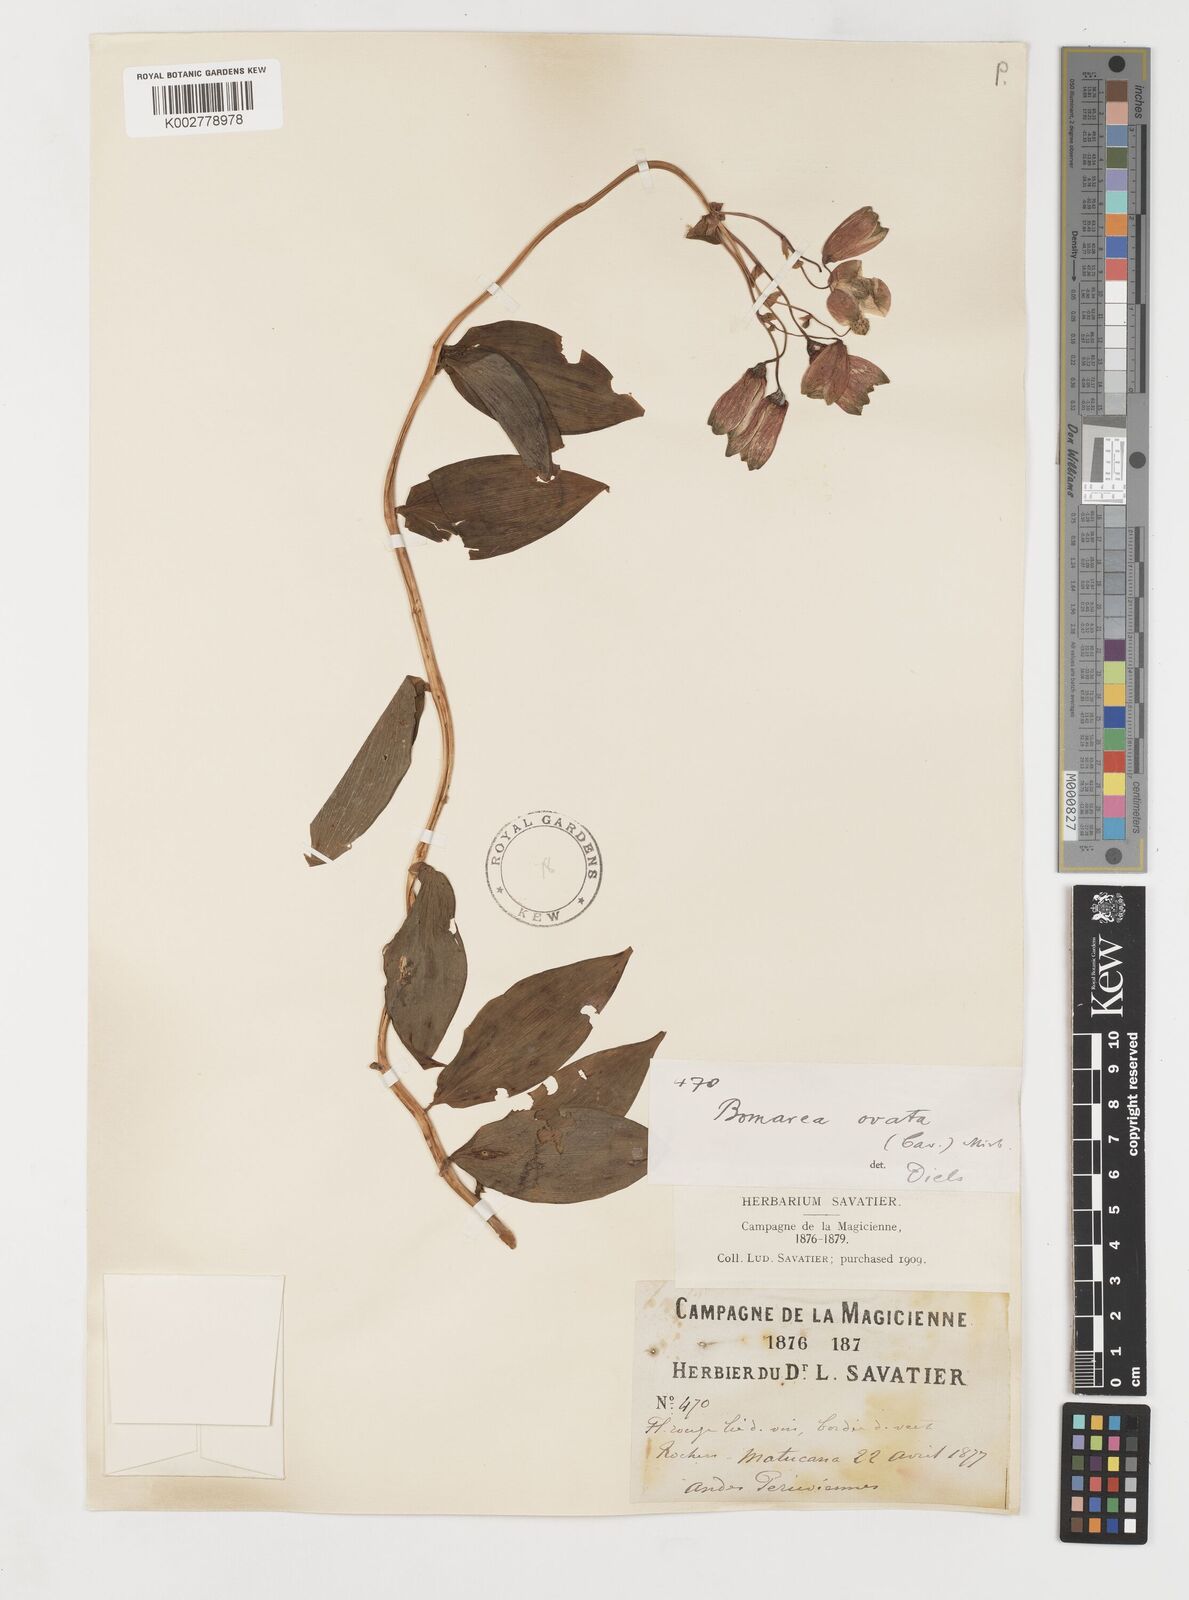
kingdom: Plantae
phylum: Tracheophyta
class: Liliopsida
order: Liliales
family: Alstroemeriaceae
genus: Bomarea
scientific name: Bomarea ovata
